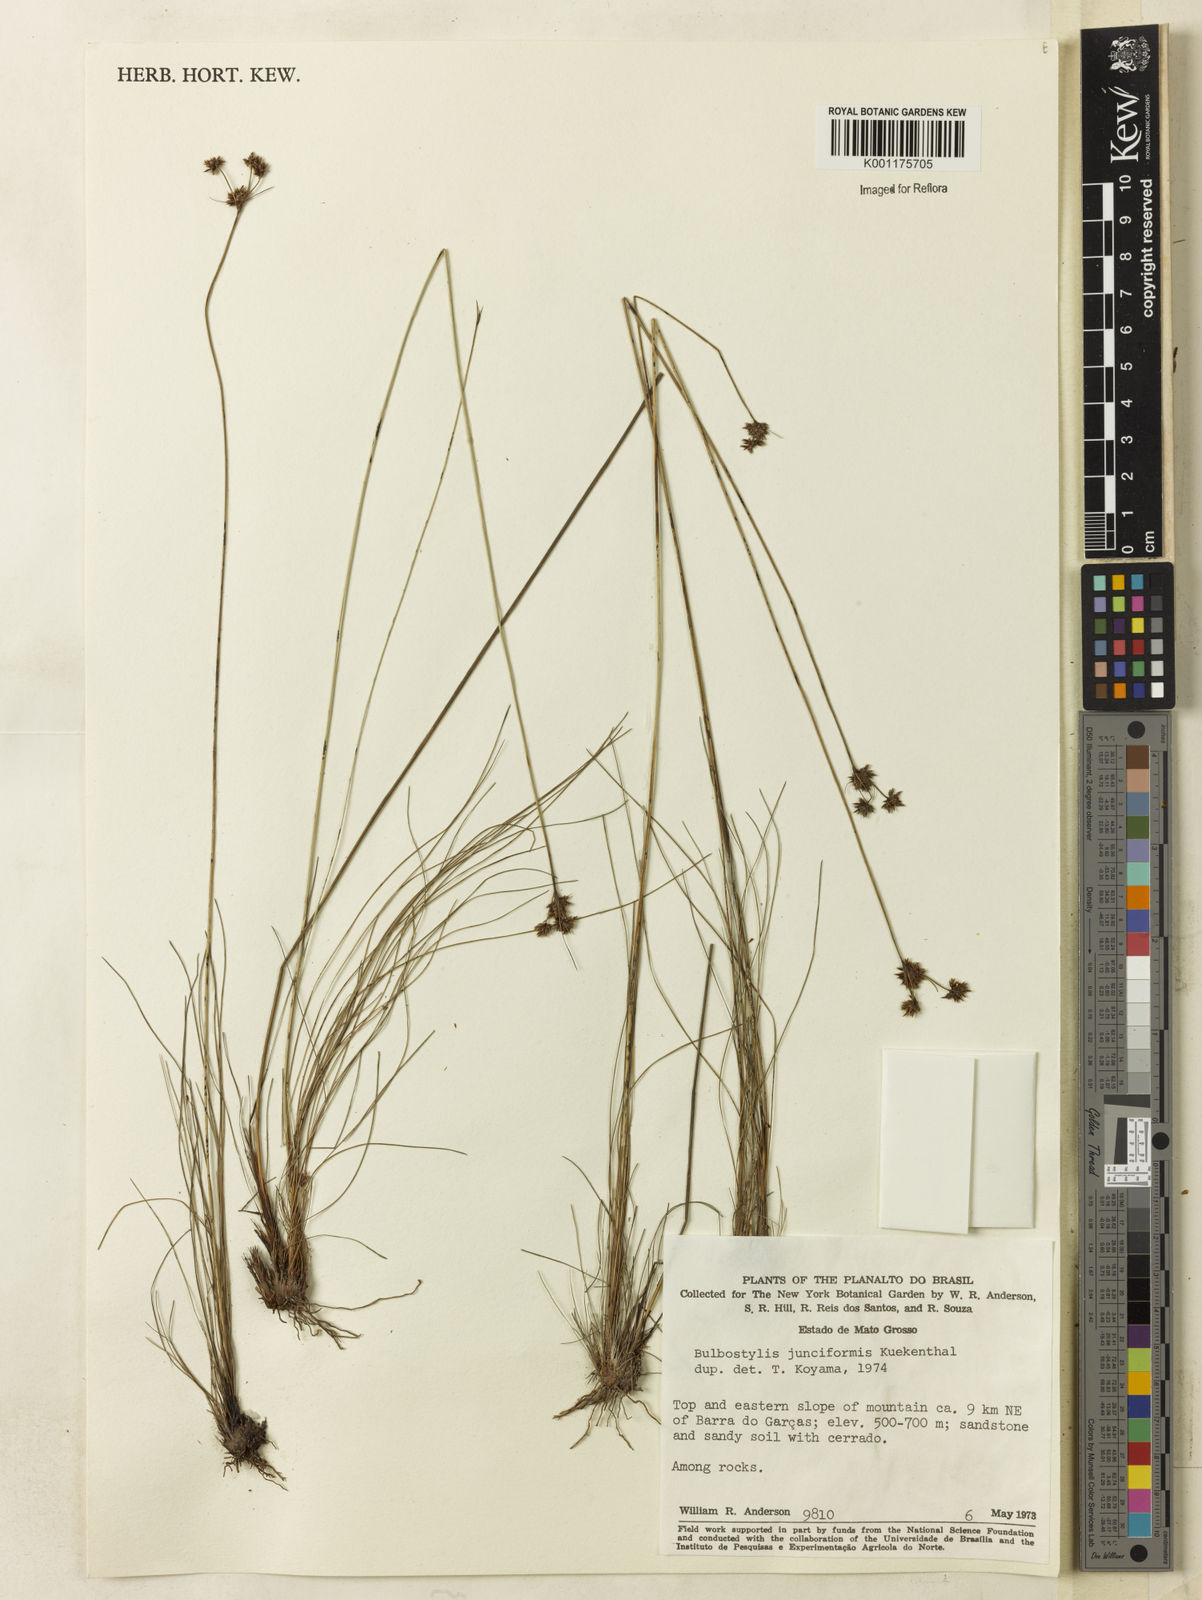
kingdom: Plantae
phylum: Tracheophyta
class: Liliopsida
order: Poales
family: Cyperaceae
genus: Bulbostylis
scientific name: Bulbostylis junciformis
